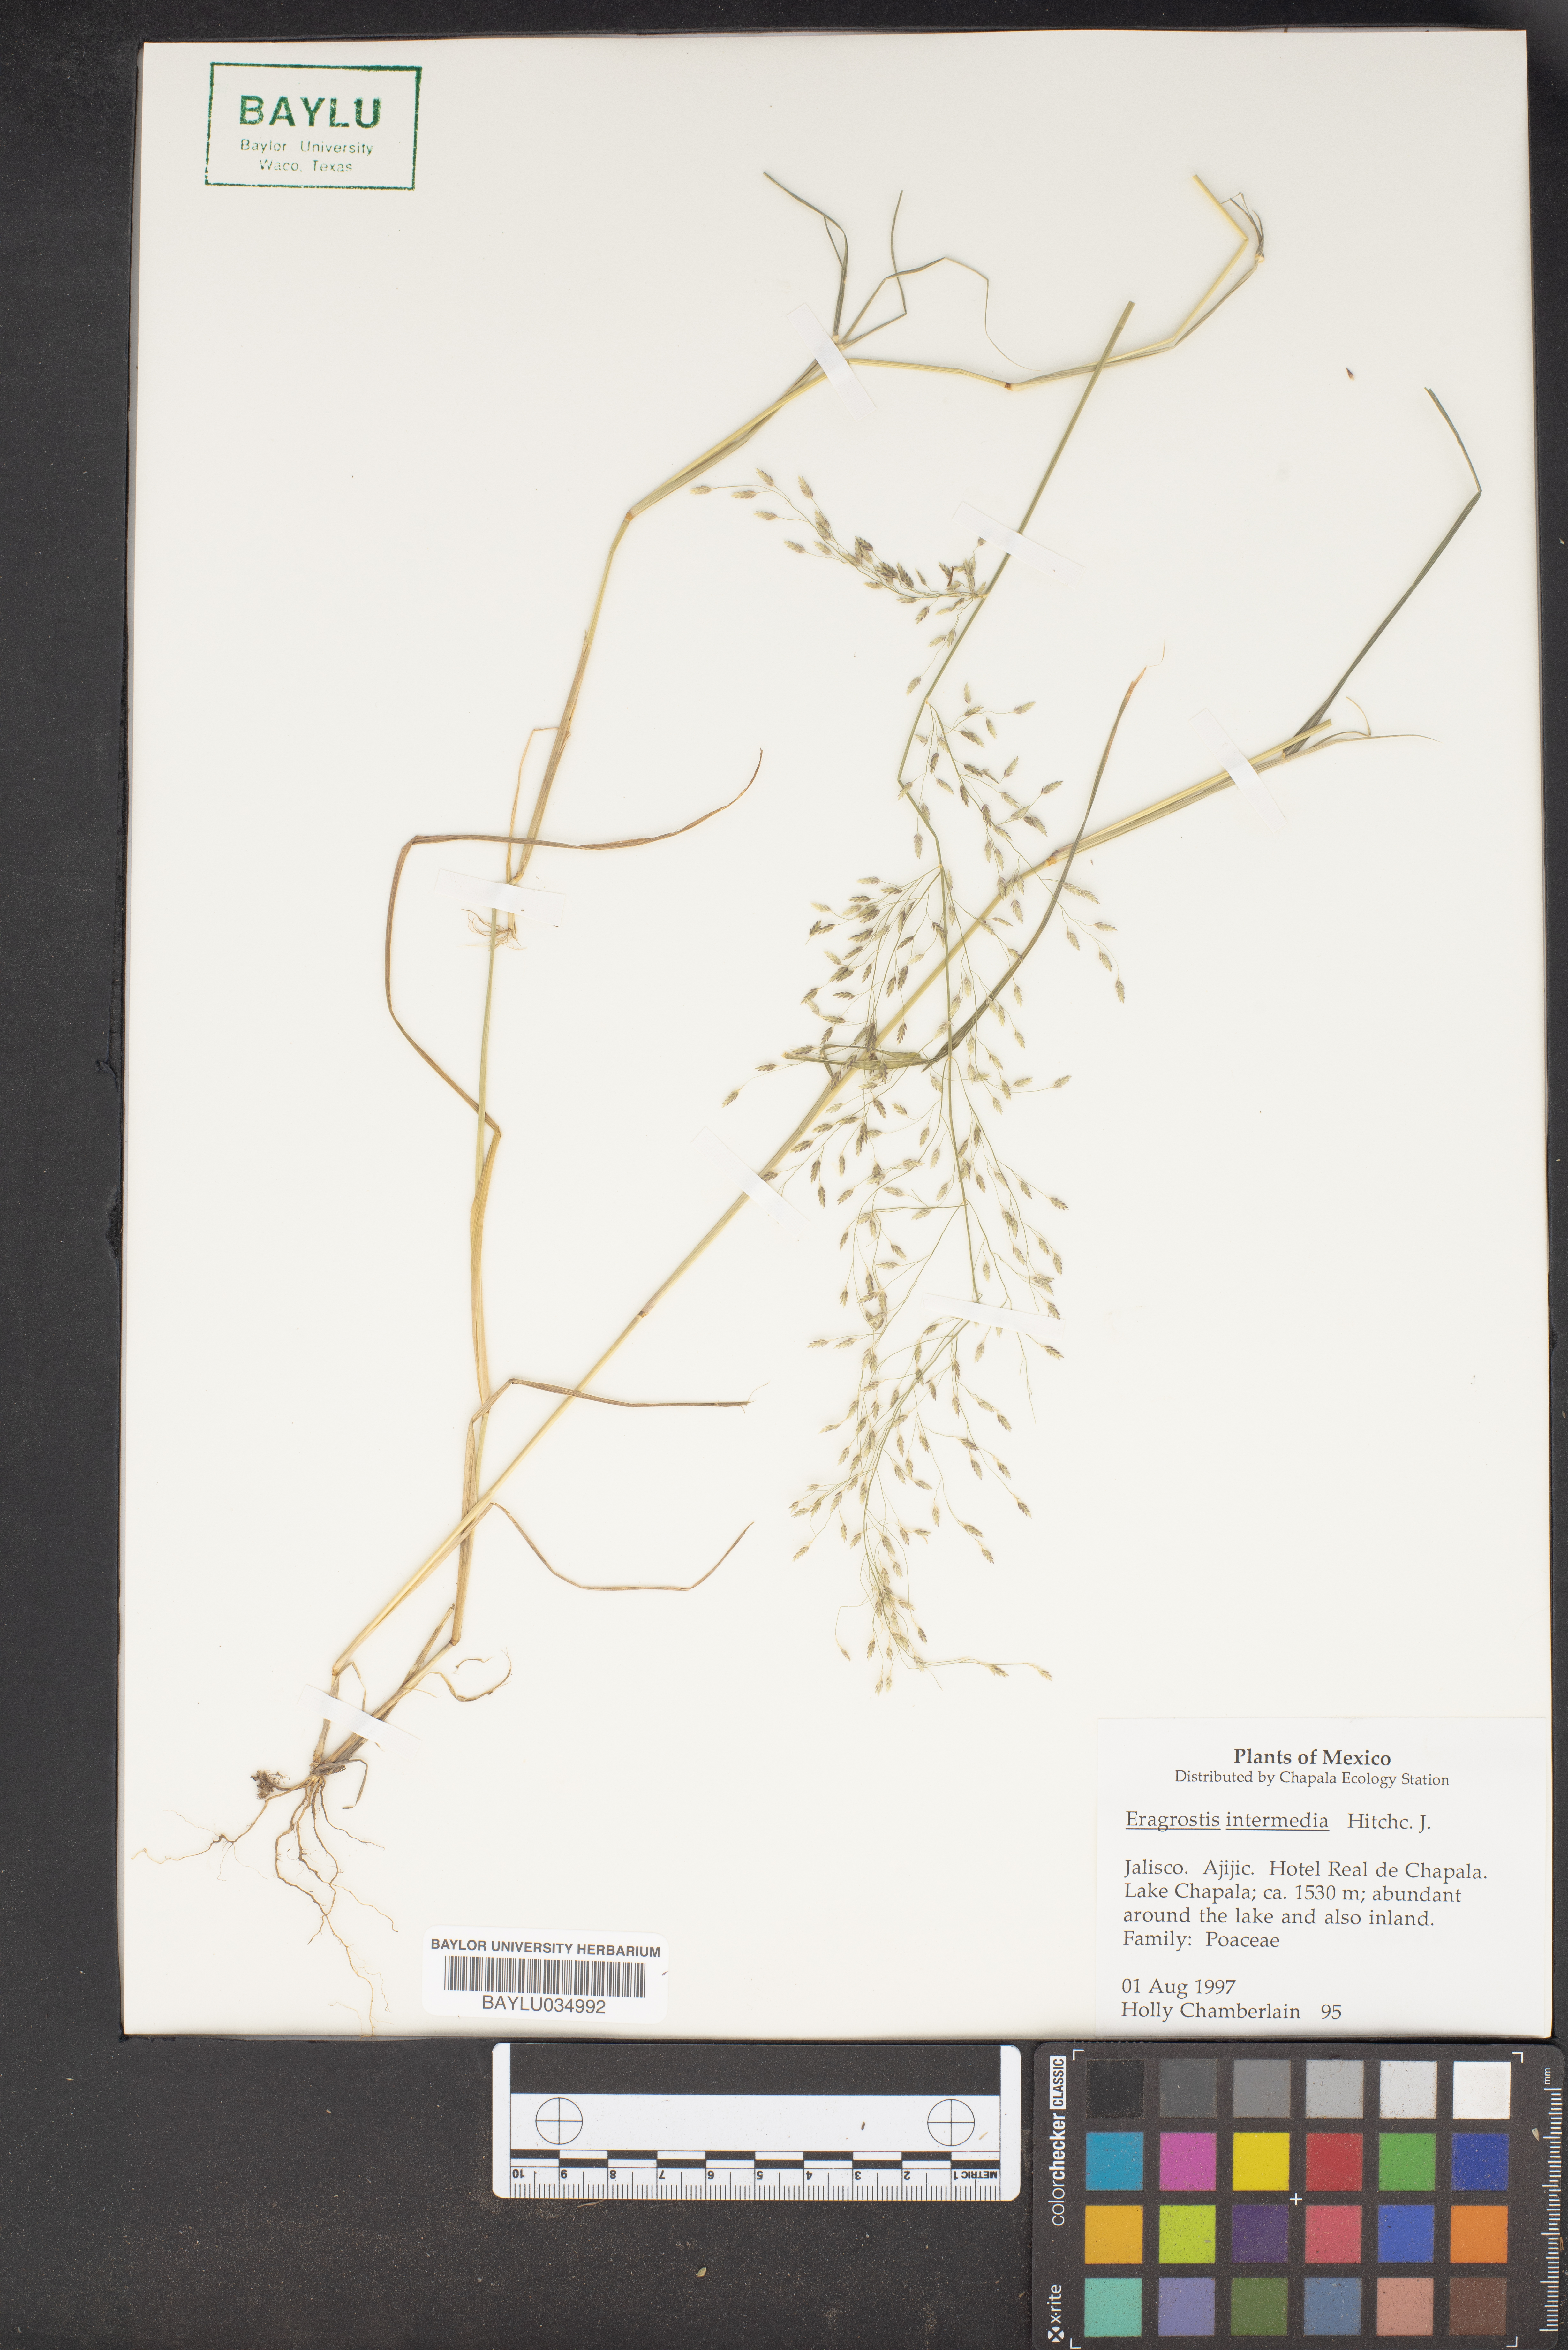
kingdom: Plantae
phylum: Tracheophyta
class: Liliopsida
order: Poales
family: Poaceae
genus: Eragrostis
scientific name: Eragrostis intermedia
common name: Plains love grass
